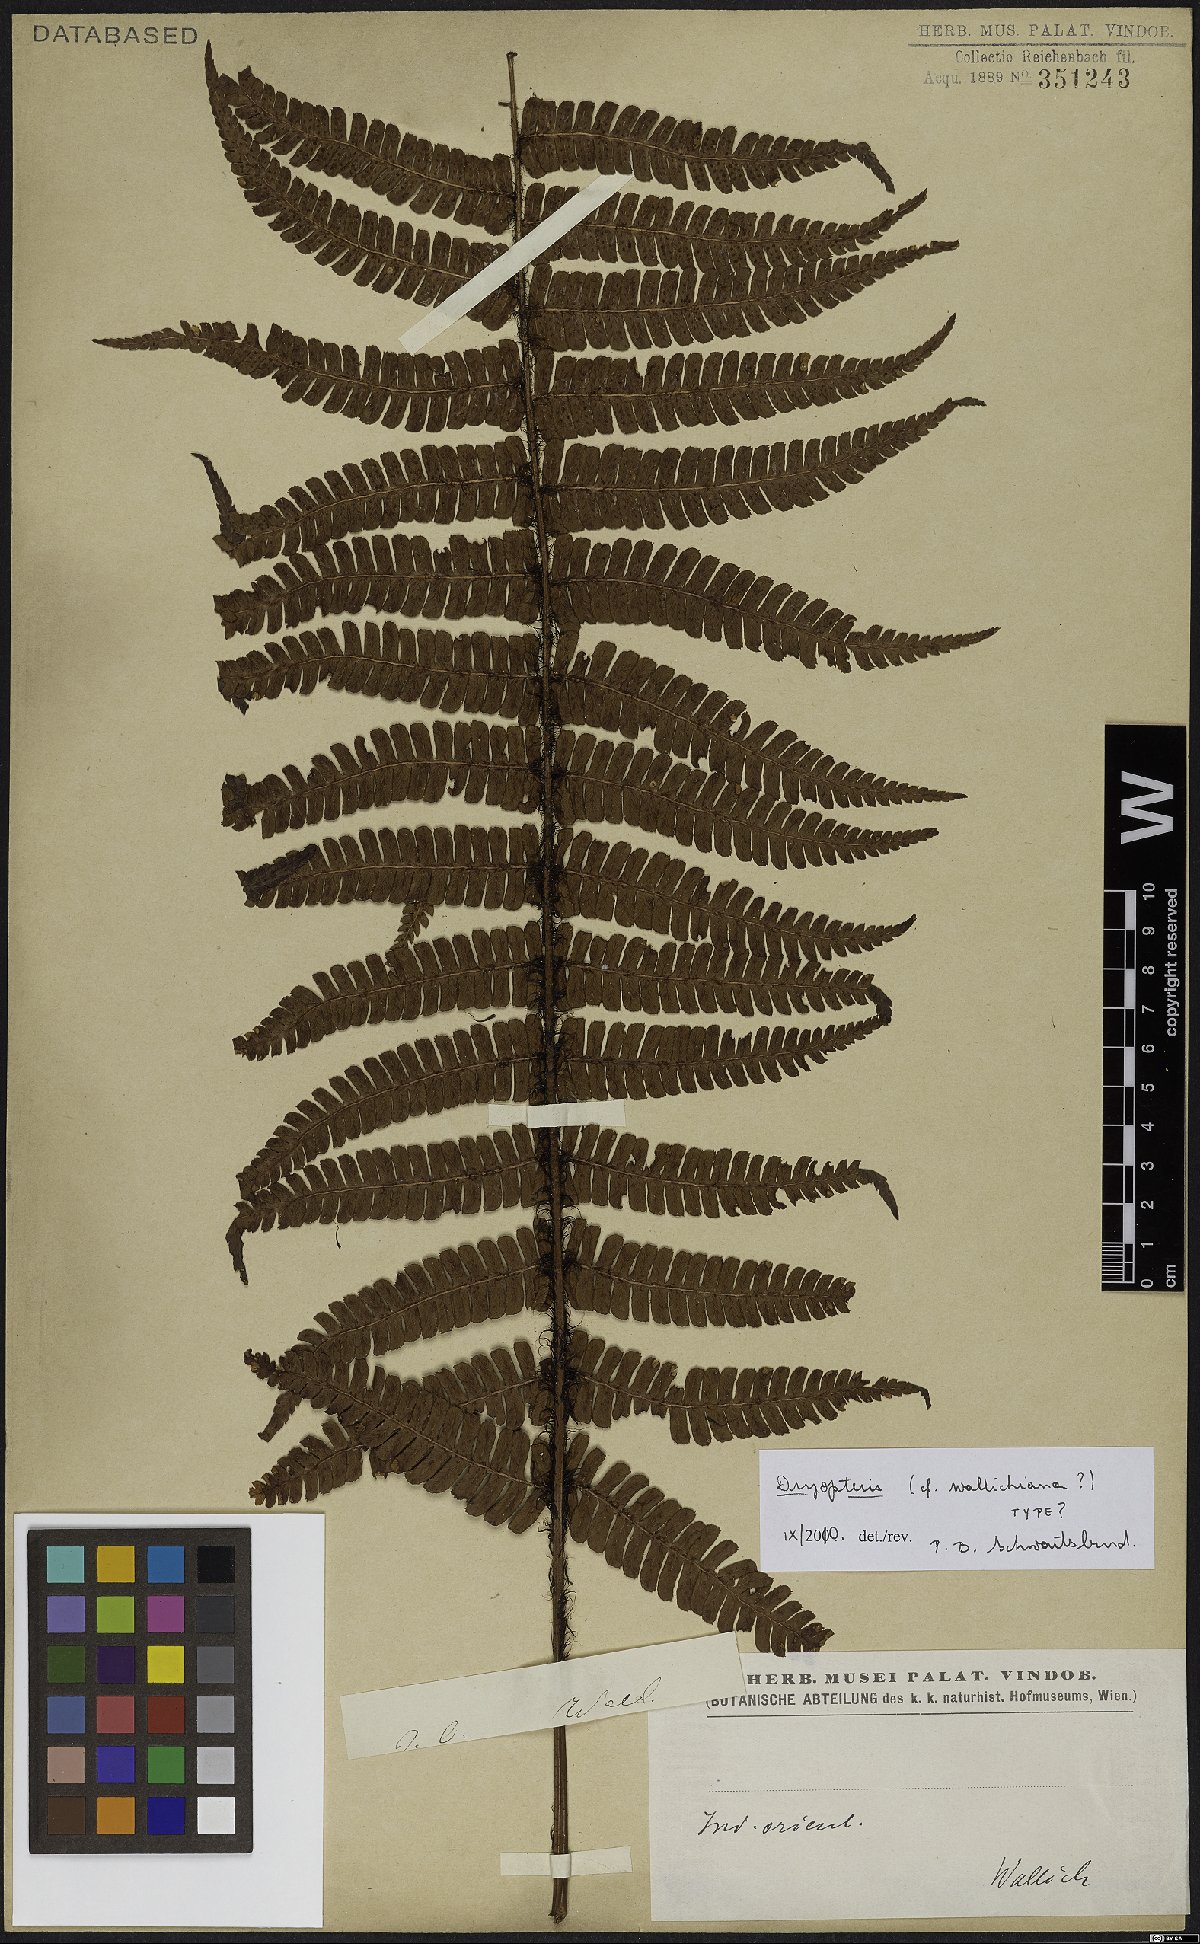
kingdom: Plantae
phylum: Tracheophyta
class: Polypodiopsida
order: Polypodiales
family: Dryopteridaceae
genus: Dryopteris
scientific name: Dryopteris wallichiana
